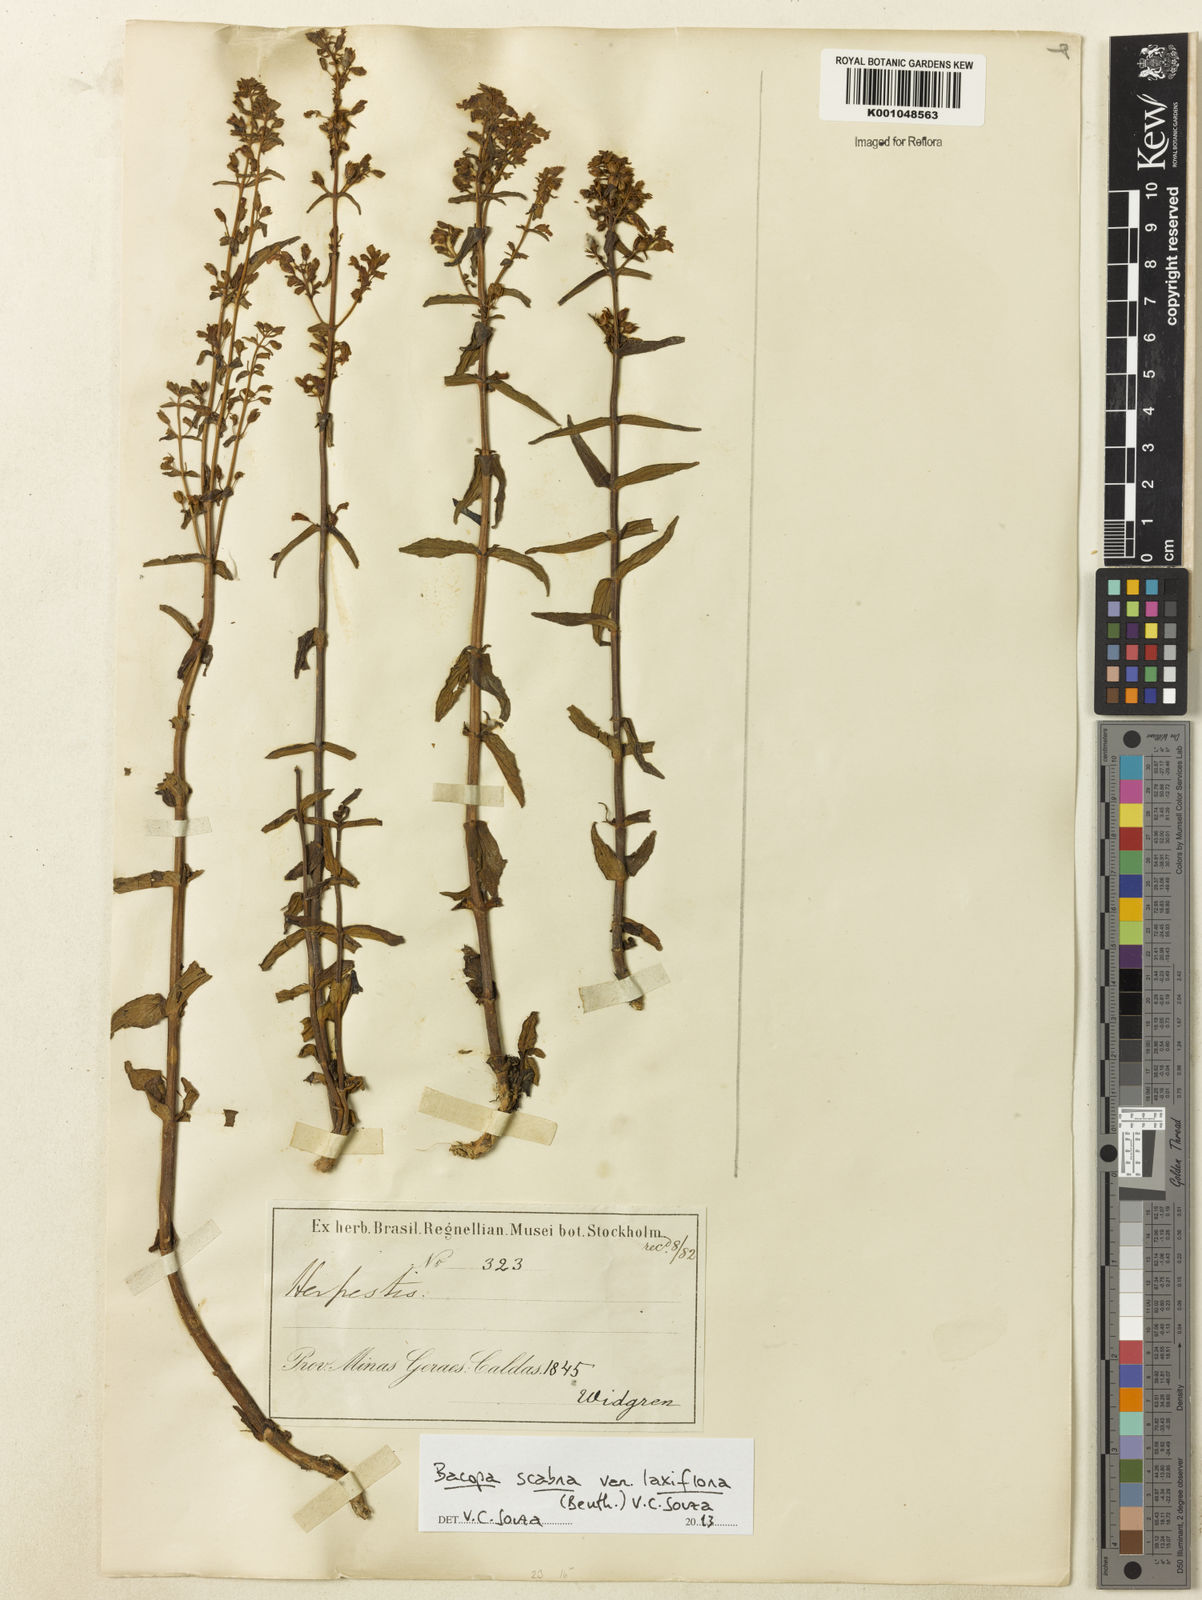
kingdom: Plantae
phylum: Tracheophyta
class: Magnoliopsida
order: Lamiales
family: Plantaginaceae
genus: Bacopa
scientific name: Bacopa laxiflora
